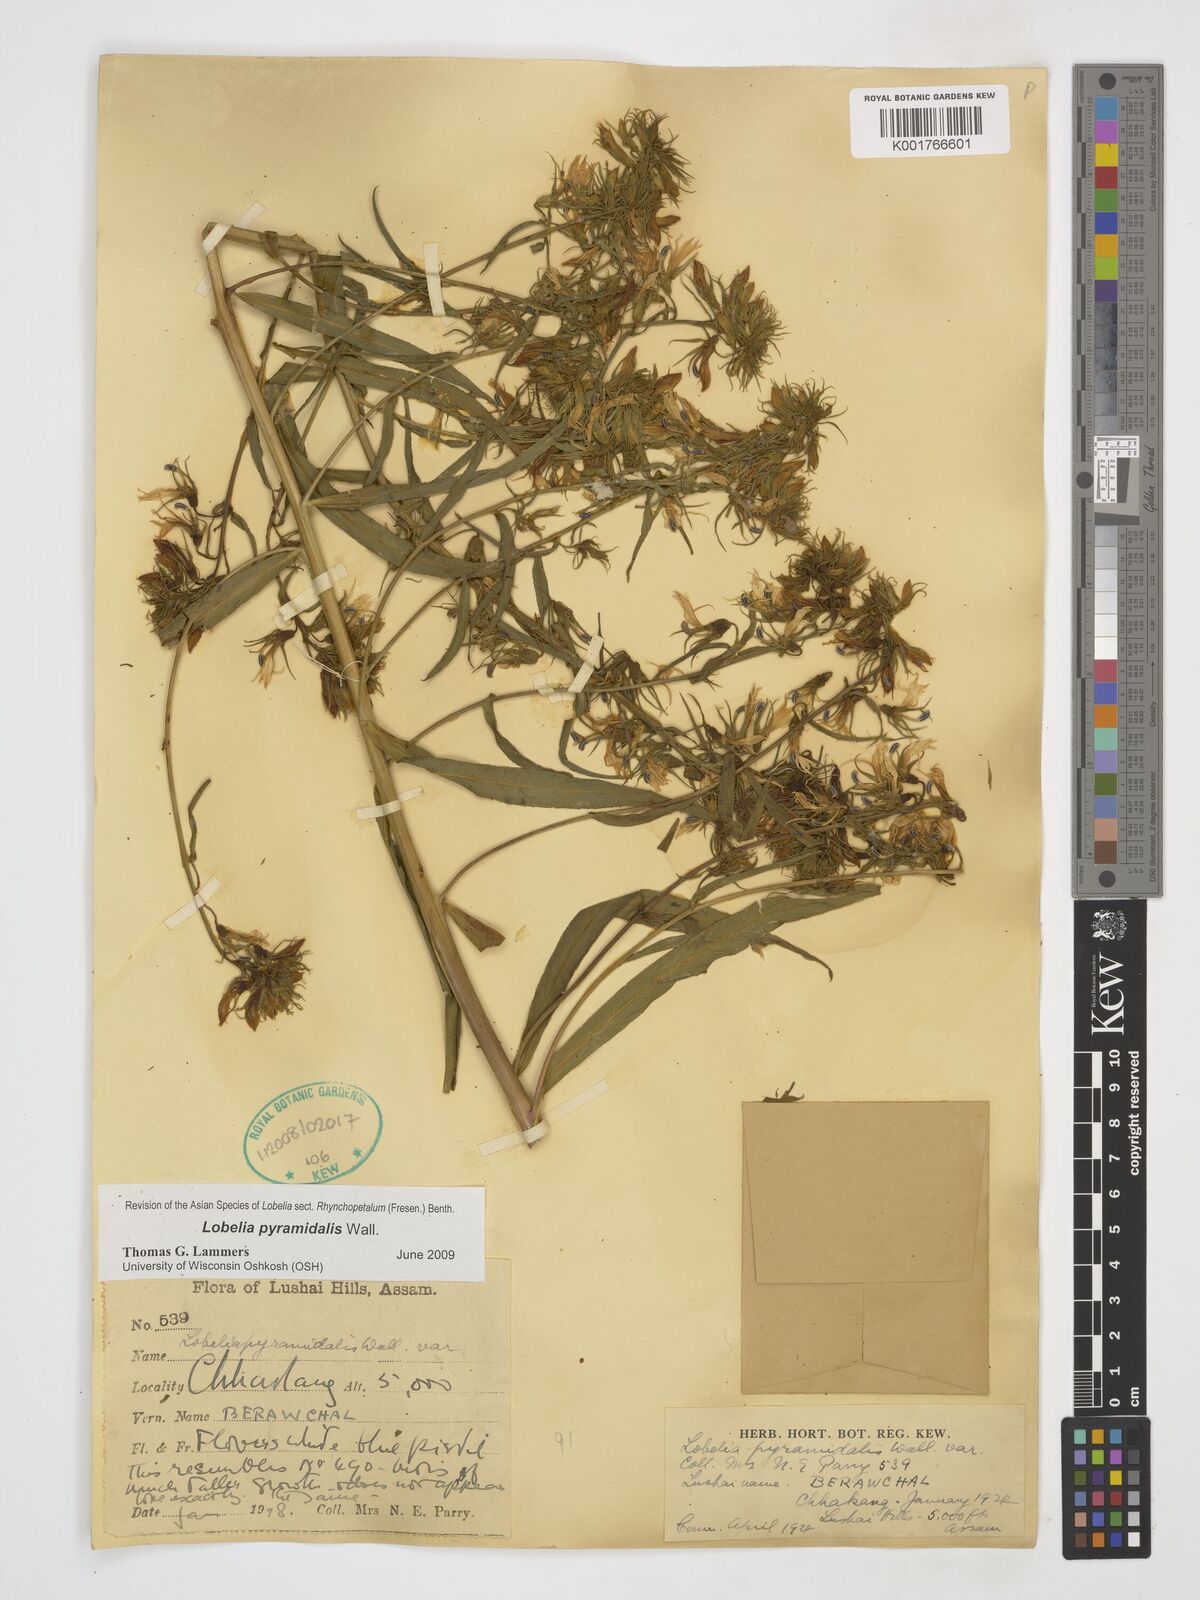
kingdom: Plantae
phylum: Tracheophyta
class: Magnoliopsida
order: Asterales
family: Campanulaceae
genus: Lobelia
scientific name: Lobelia pyramidalis
